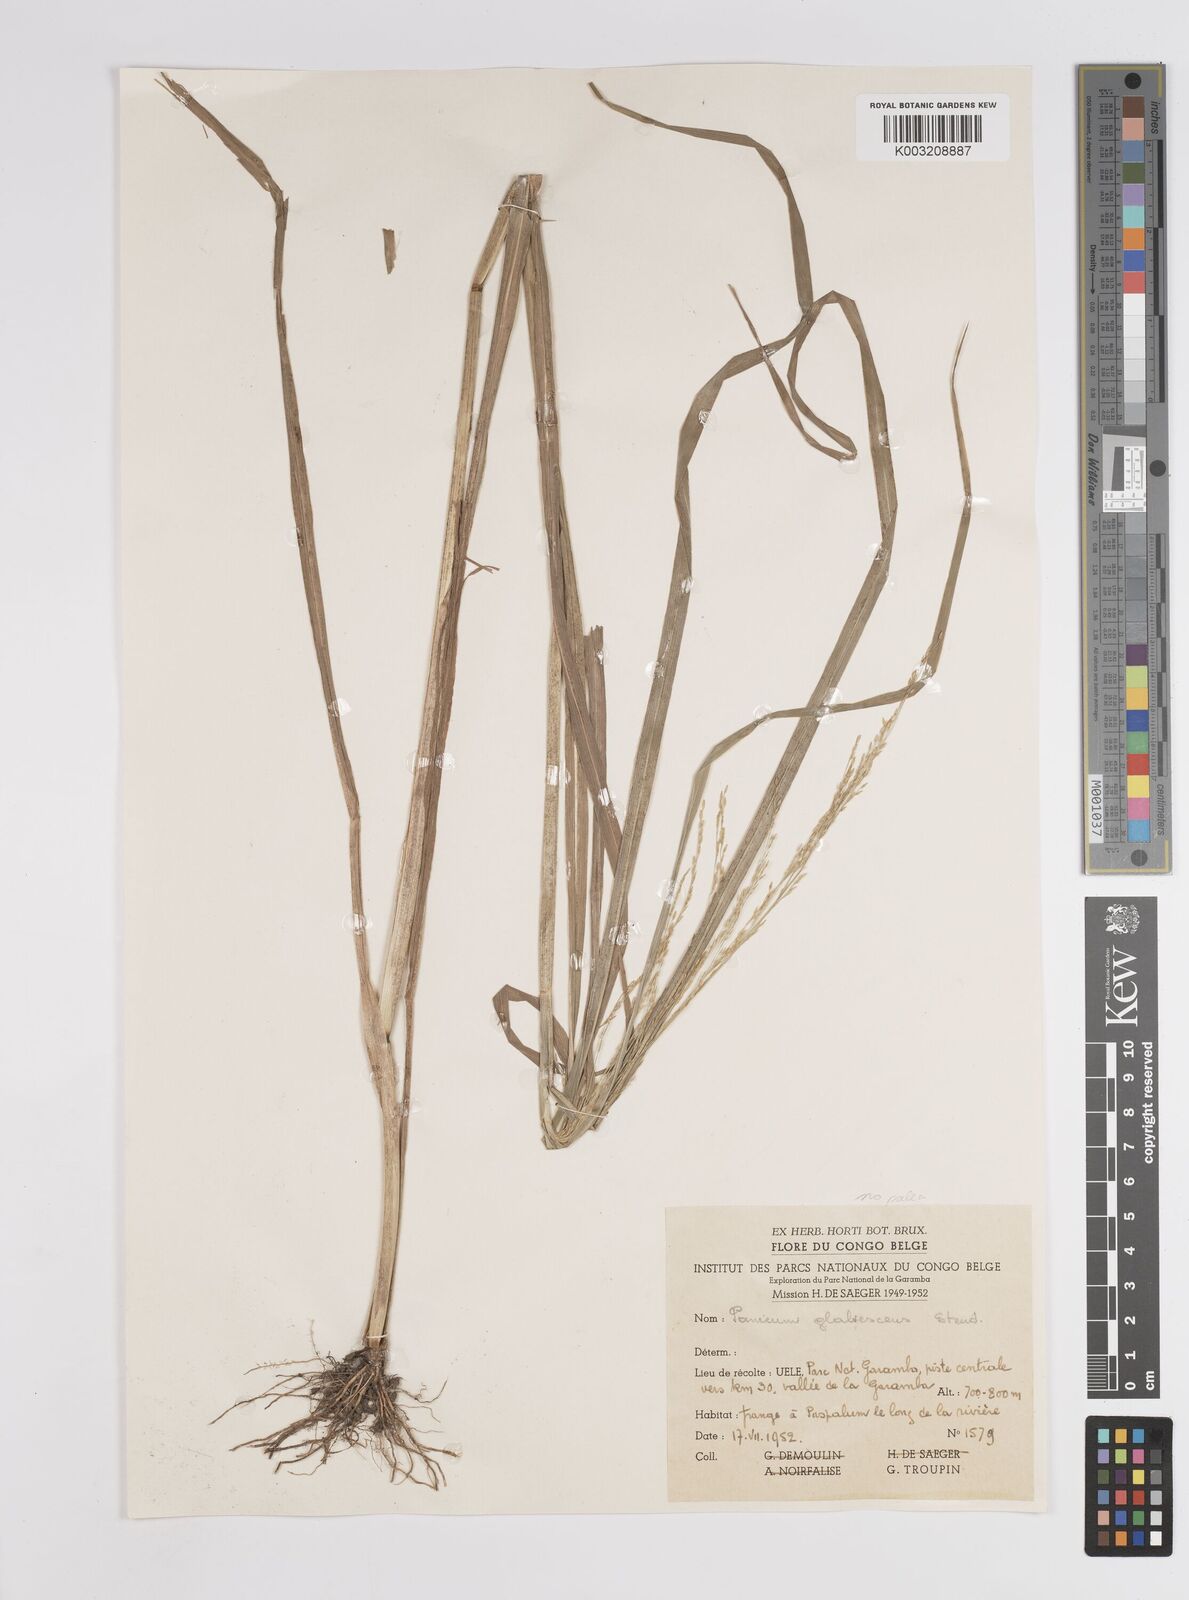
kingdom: Plantae
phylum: Tracheophyta
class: Liliopsida
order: Poales
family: Poaceae
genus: Panicum
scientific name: Panicum subalbidum
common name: Elbow buffalo grass
